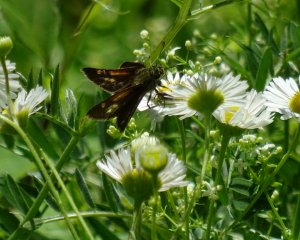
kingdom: Animalia
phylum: Arthropoda
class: Insecta
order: Lepidoptera
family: Hesperiidae
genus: Polites
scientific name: Polites themistocles
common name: Tawny-edged Skipper
